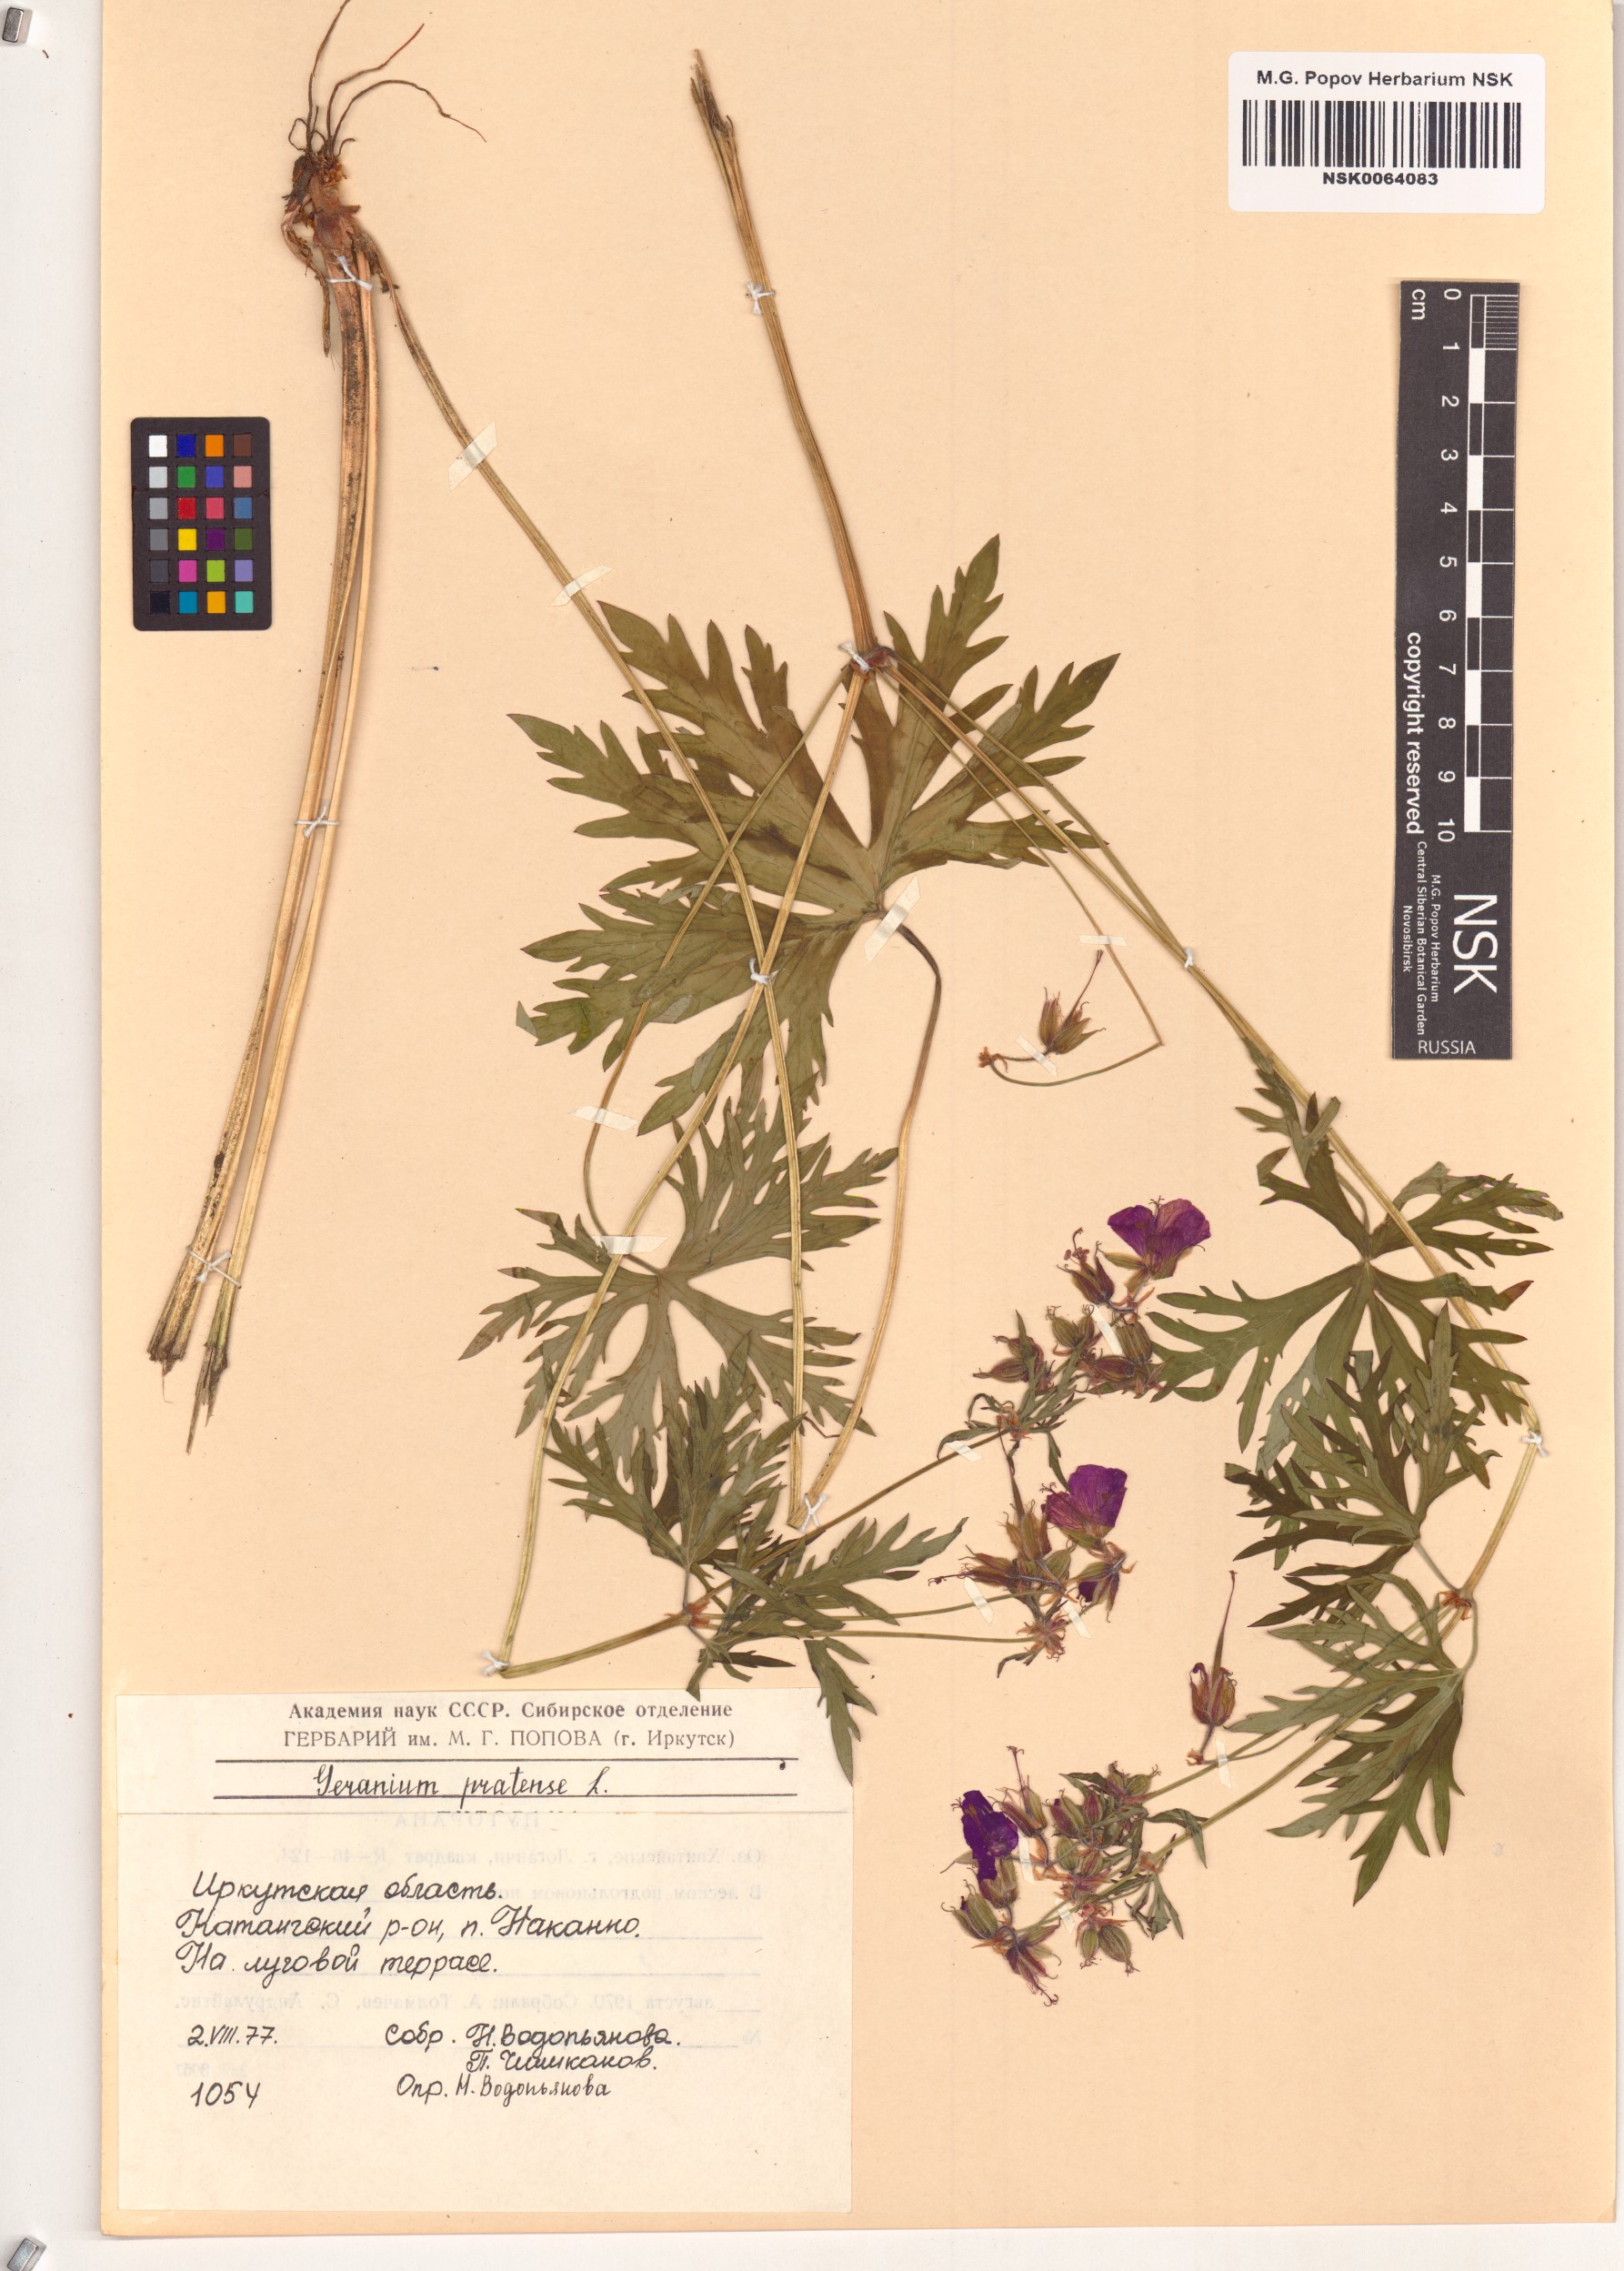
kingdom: Plantae
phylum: Tracheophyta
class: Magnoliopsida
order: Geraniales
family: Geraniaceae
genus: Geranium
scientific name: Geranium pratense
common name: Meadow crane's-bill
